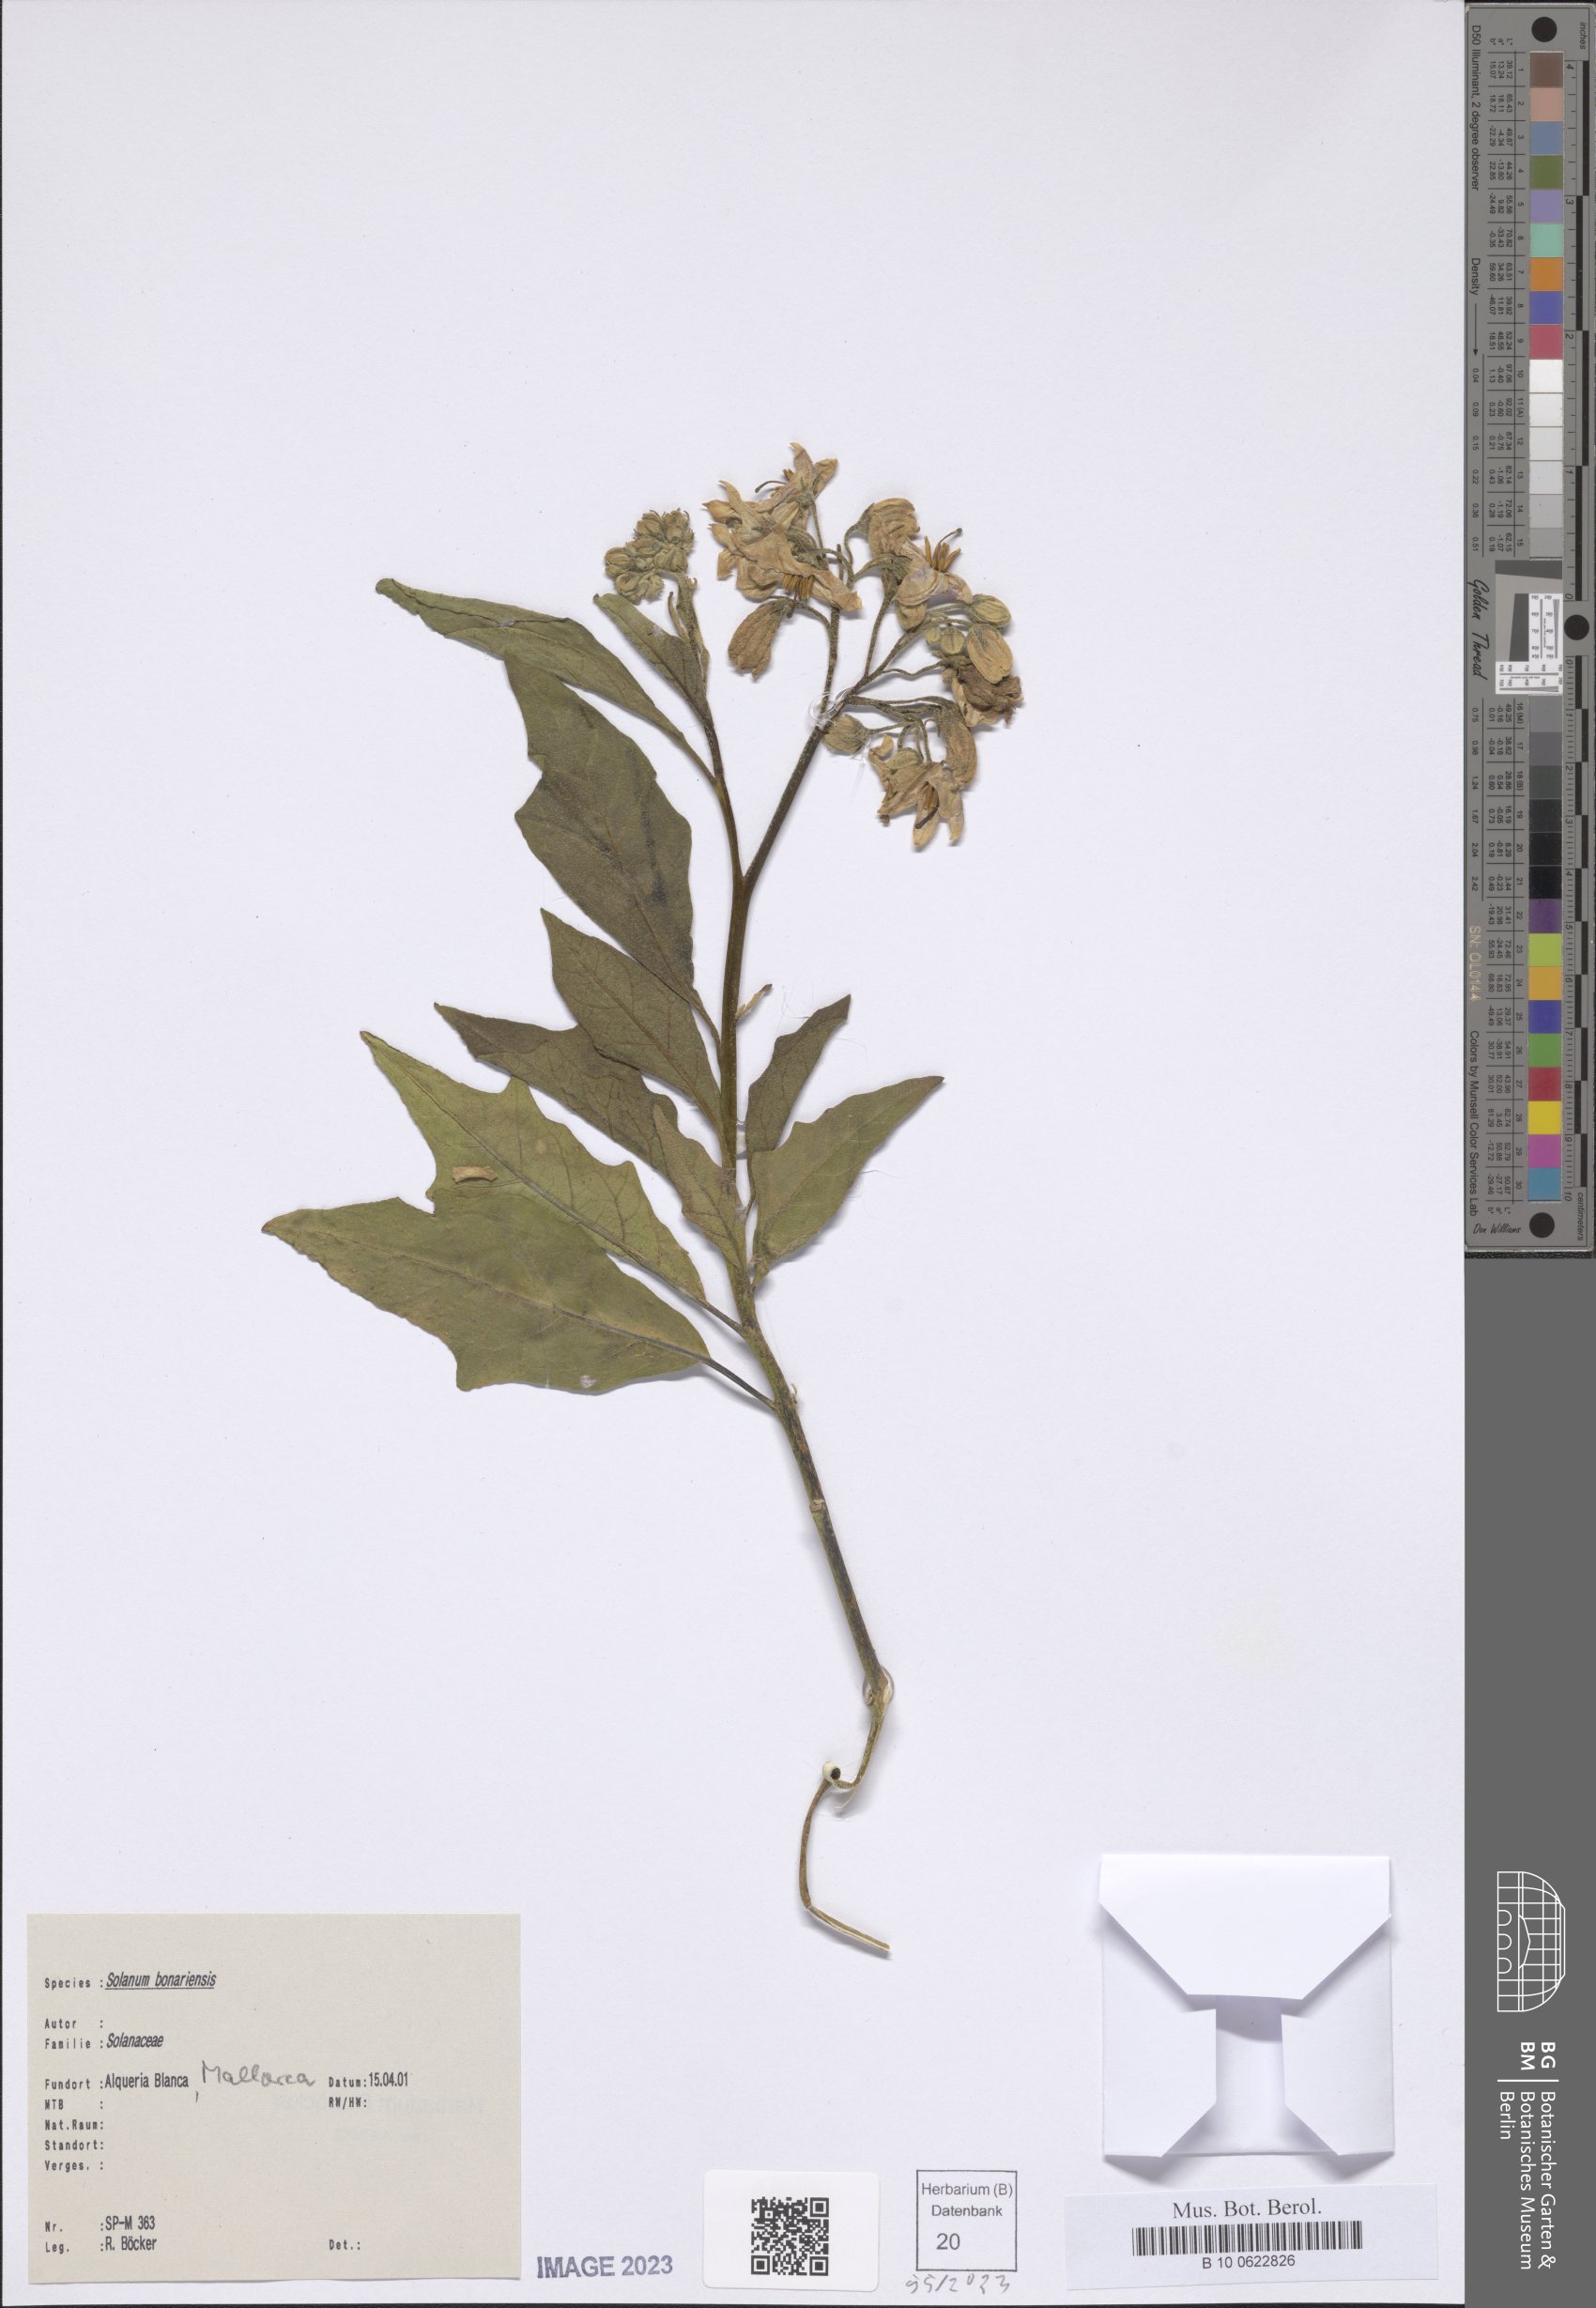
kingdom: Plantae
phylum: Tracheophyta
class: Magnoliopsida
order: Solanales
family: Solanaceae
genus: Solanum
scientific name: Solanum bonariense
